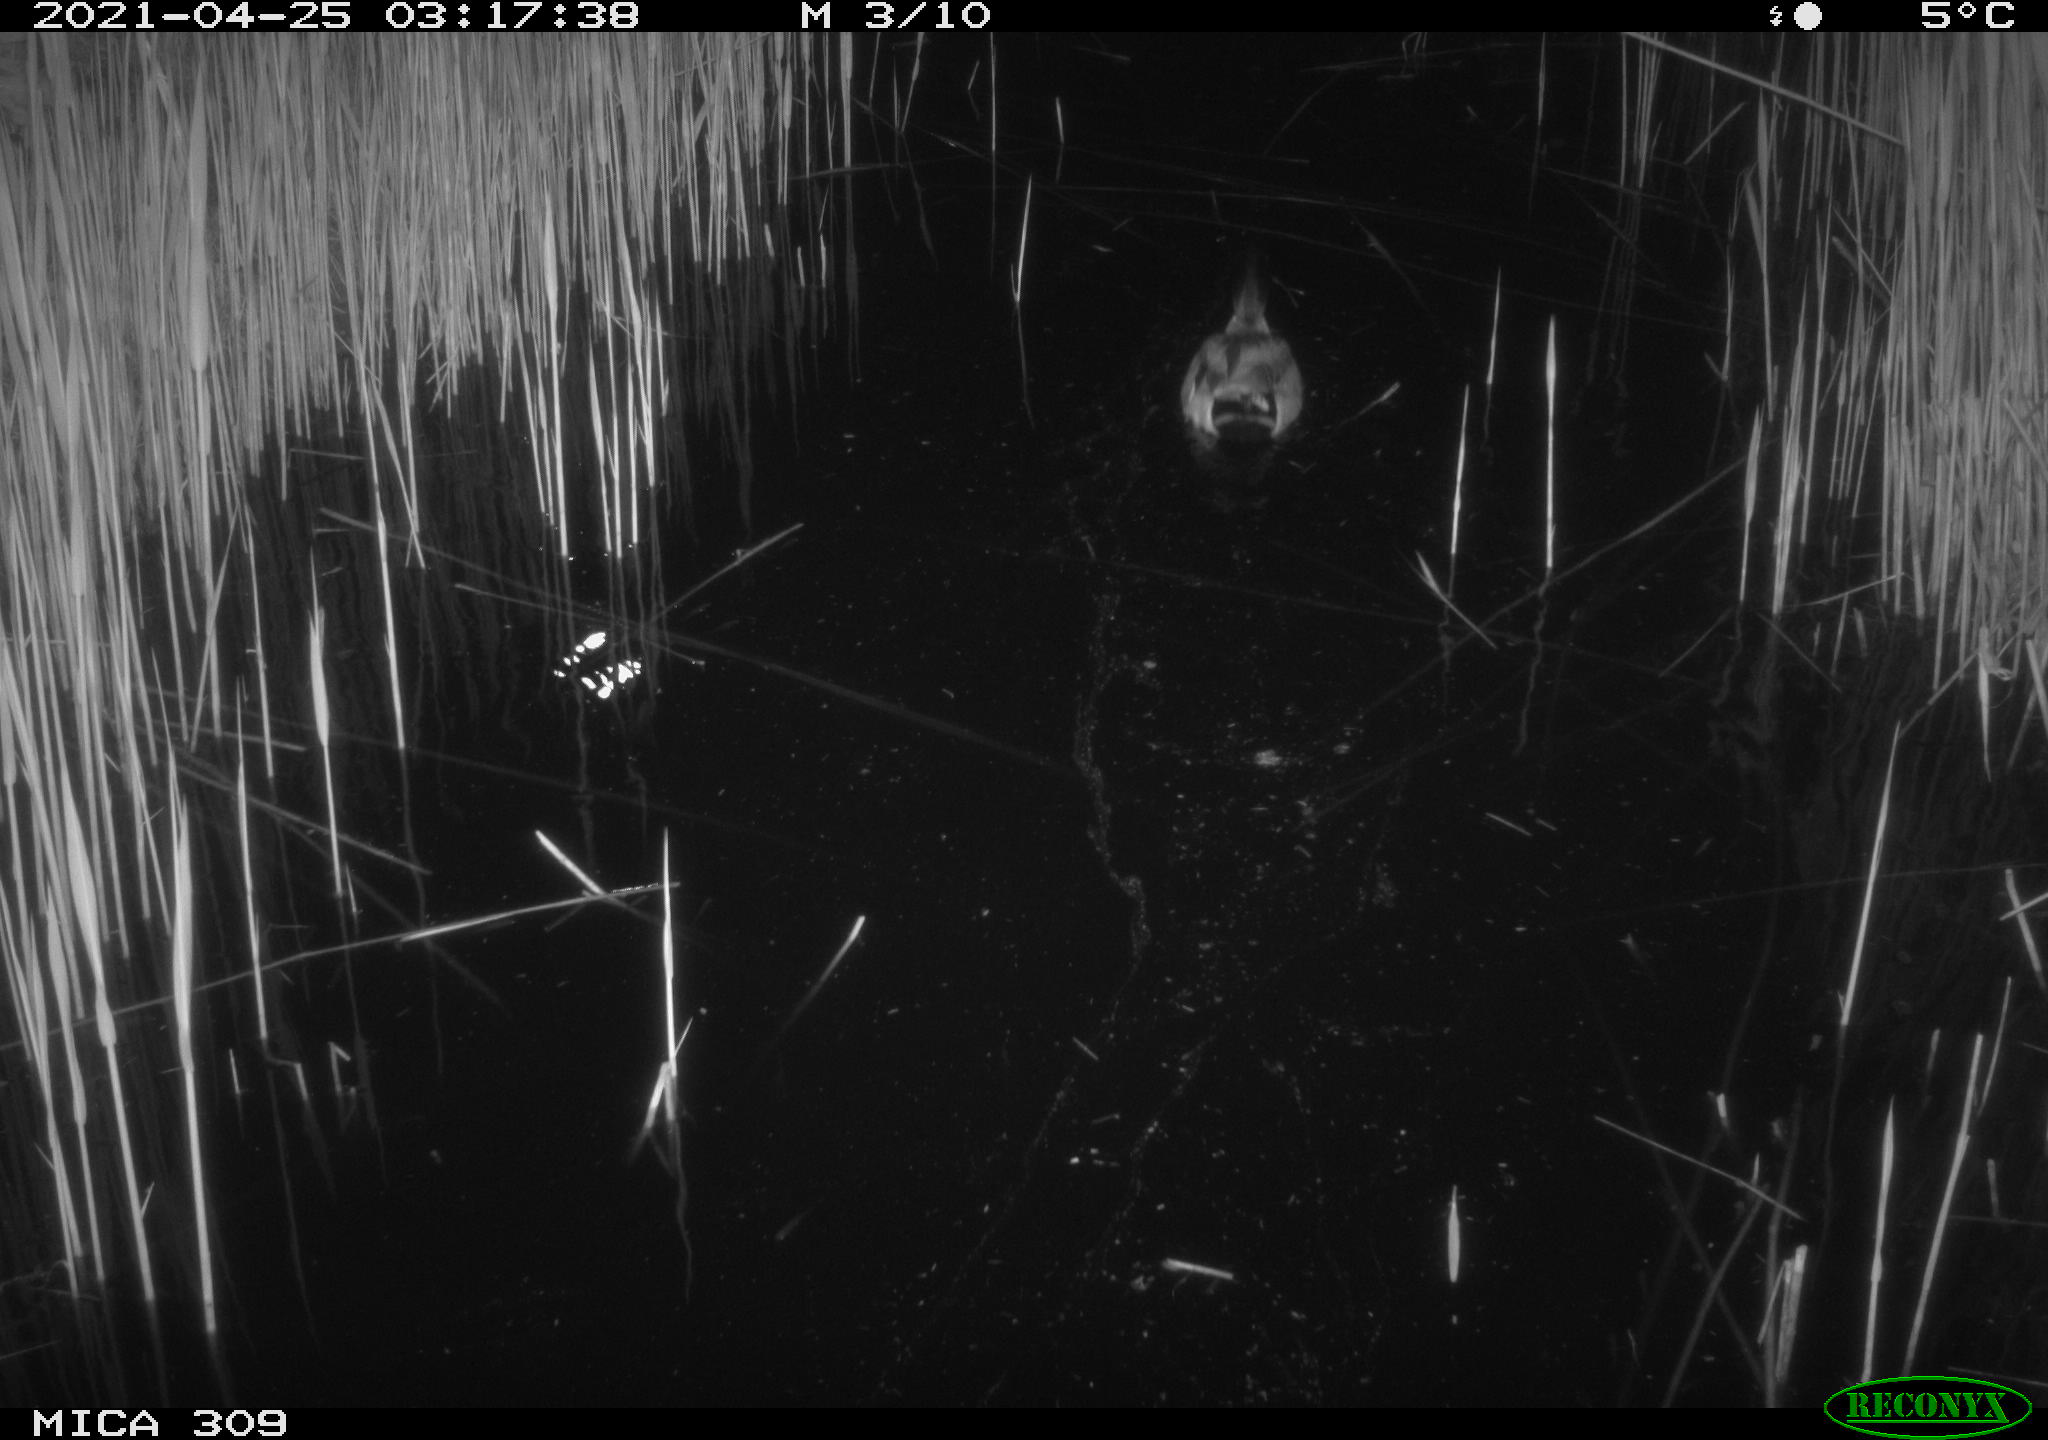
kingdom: Animalia
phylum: Chordata
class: Aves
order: Anseriformes
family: Anatidae
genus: Anas
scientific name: Anas platyrhynchos
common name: Mallard
